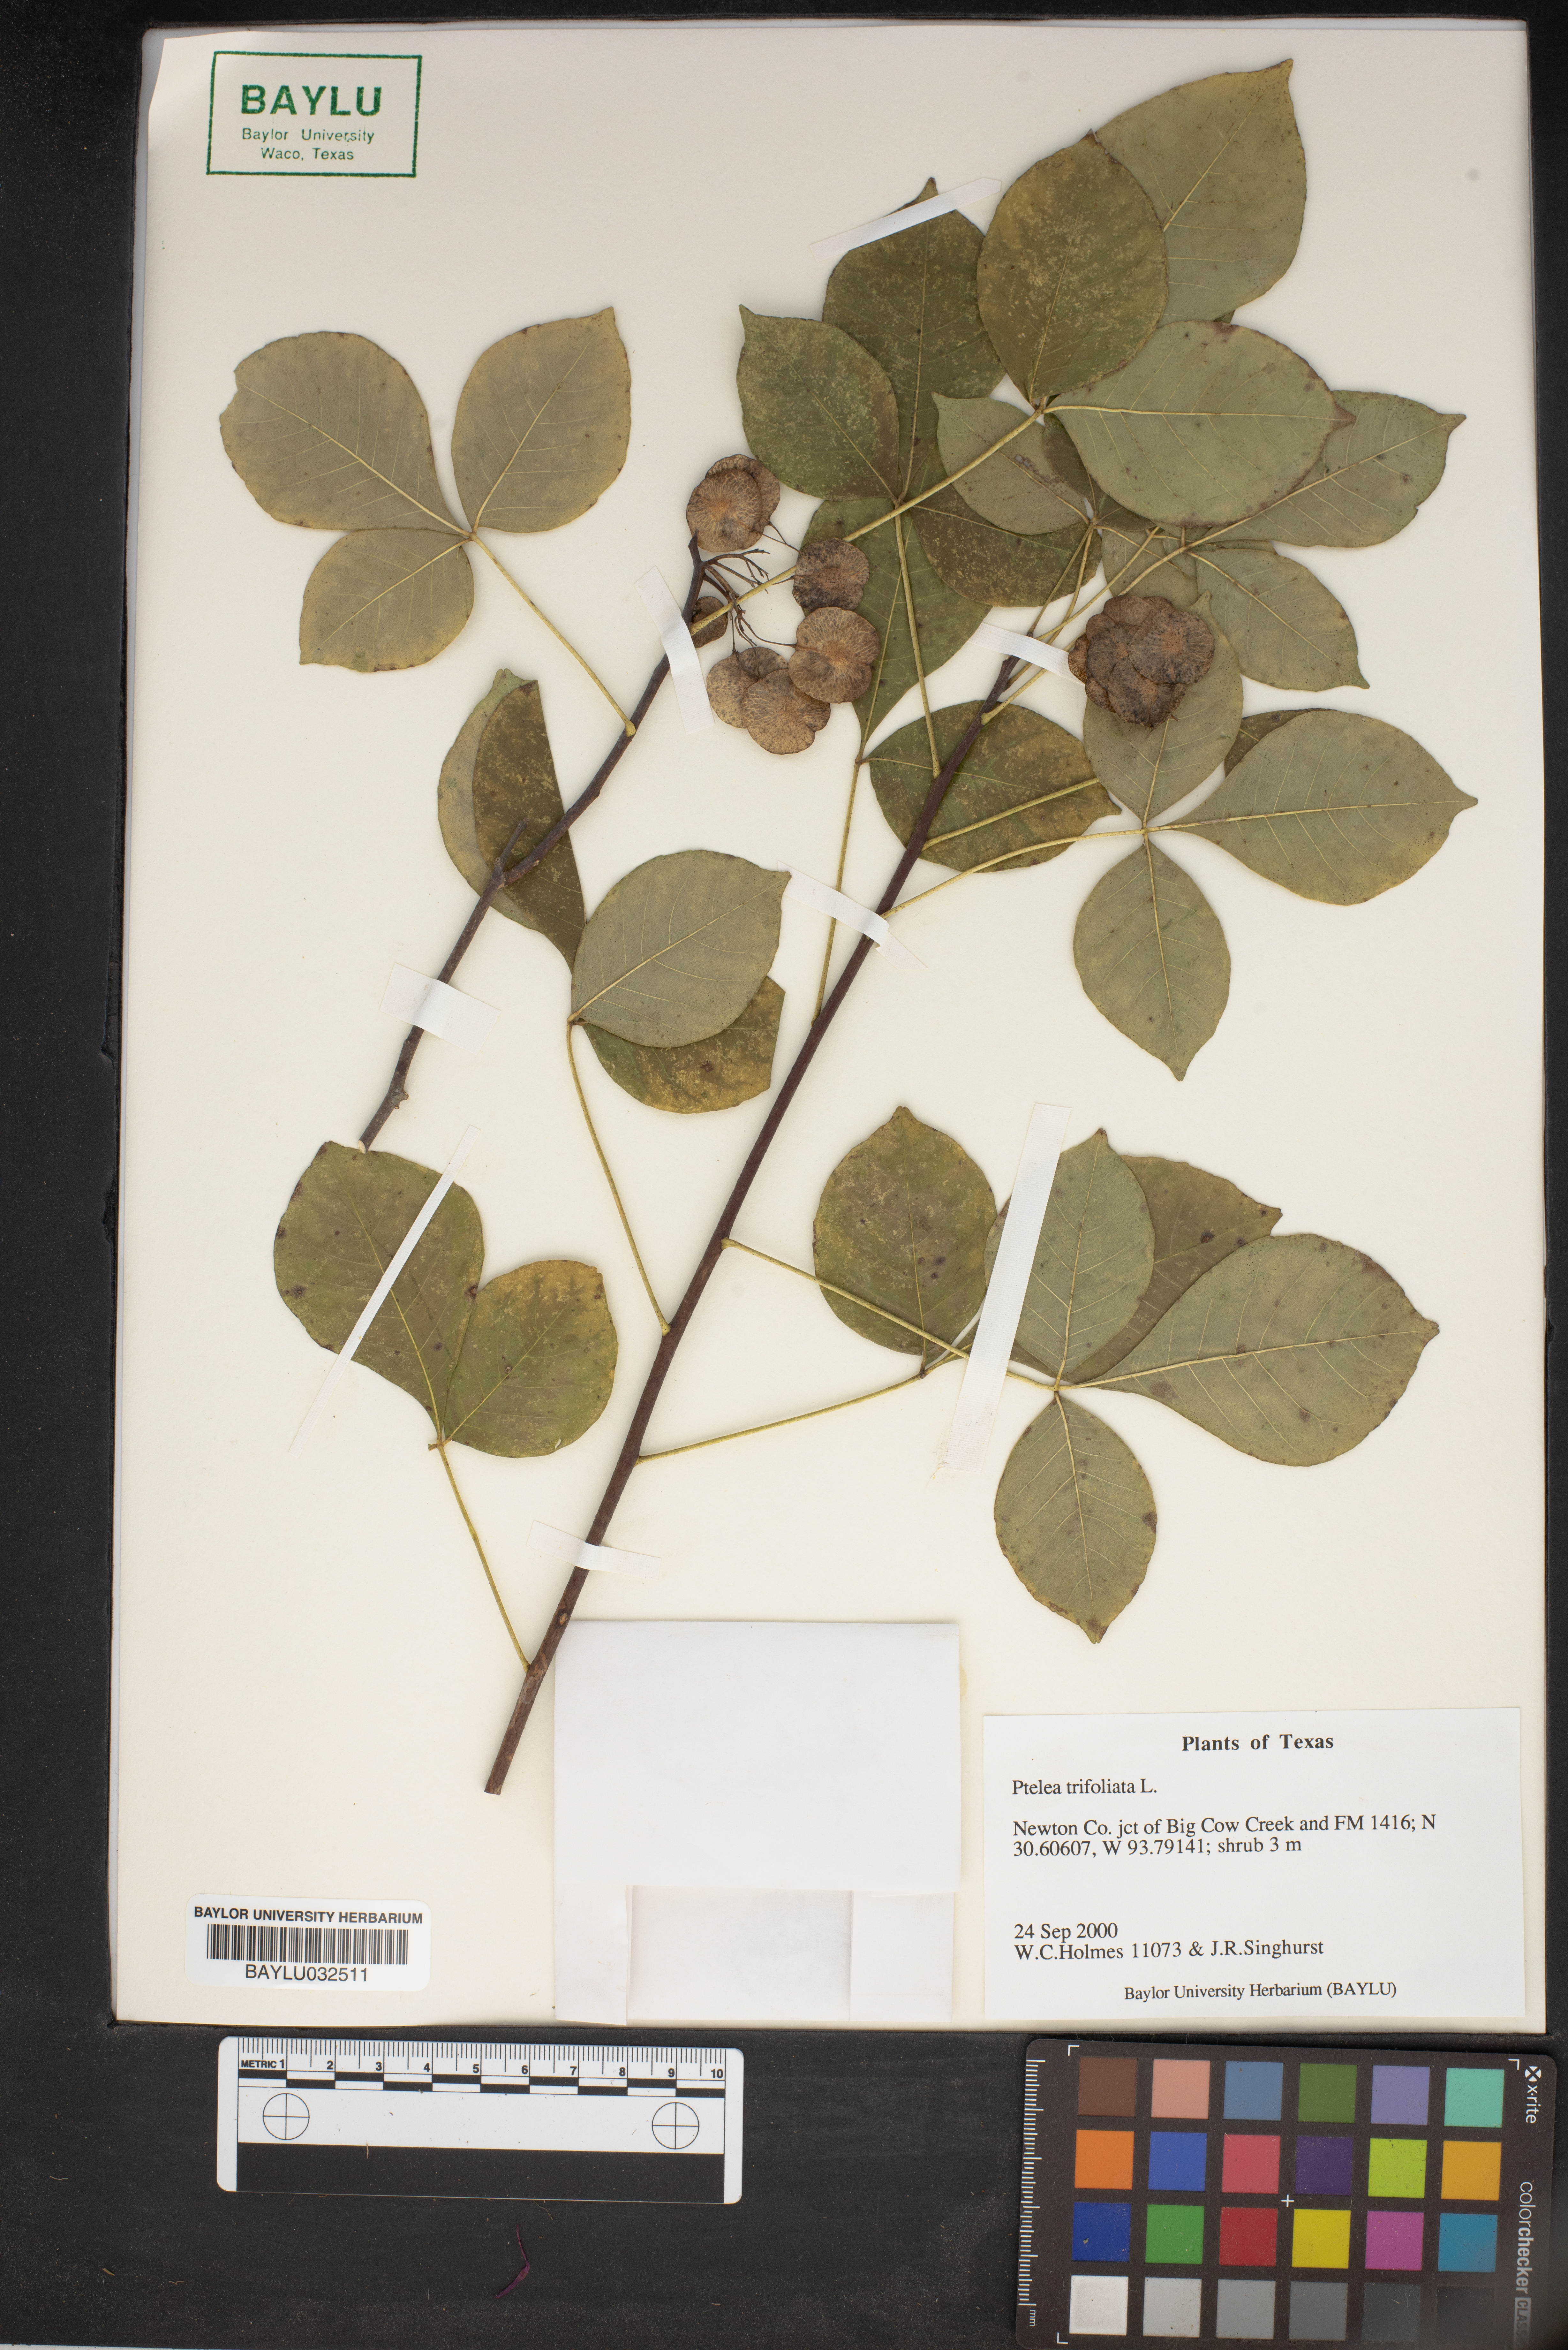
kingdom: Plantae
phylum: Tracheophyta
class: Magnoliopsida
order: Sapindales
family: Rutaceae
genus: Ptelea
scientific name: Ptelea trifoliata
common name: Common hop-tree
